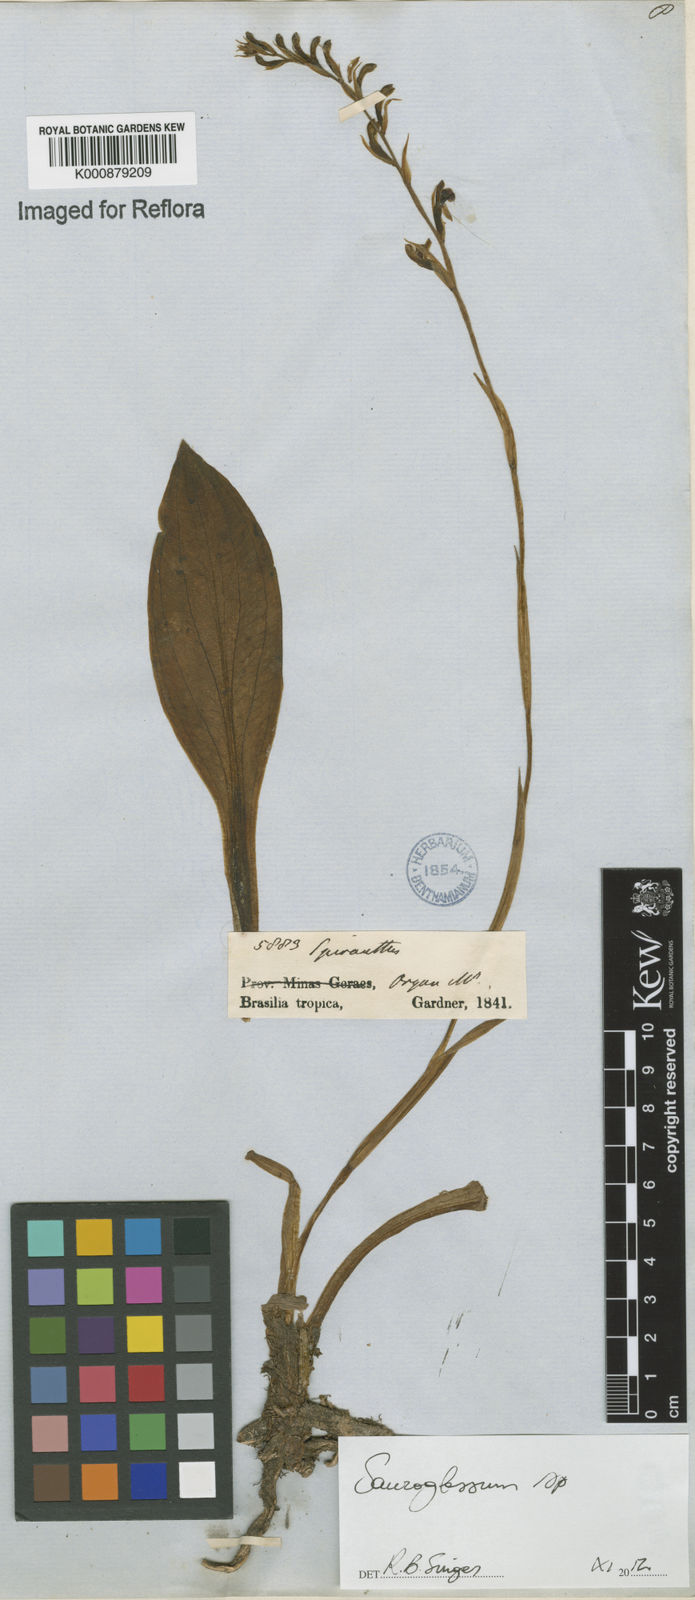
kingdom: Plantae
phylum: Tracheophyta
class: Liliopsida
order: Asparagales
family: Orchidaceae
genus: Sauroglossum
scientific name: Sauroglossum
